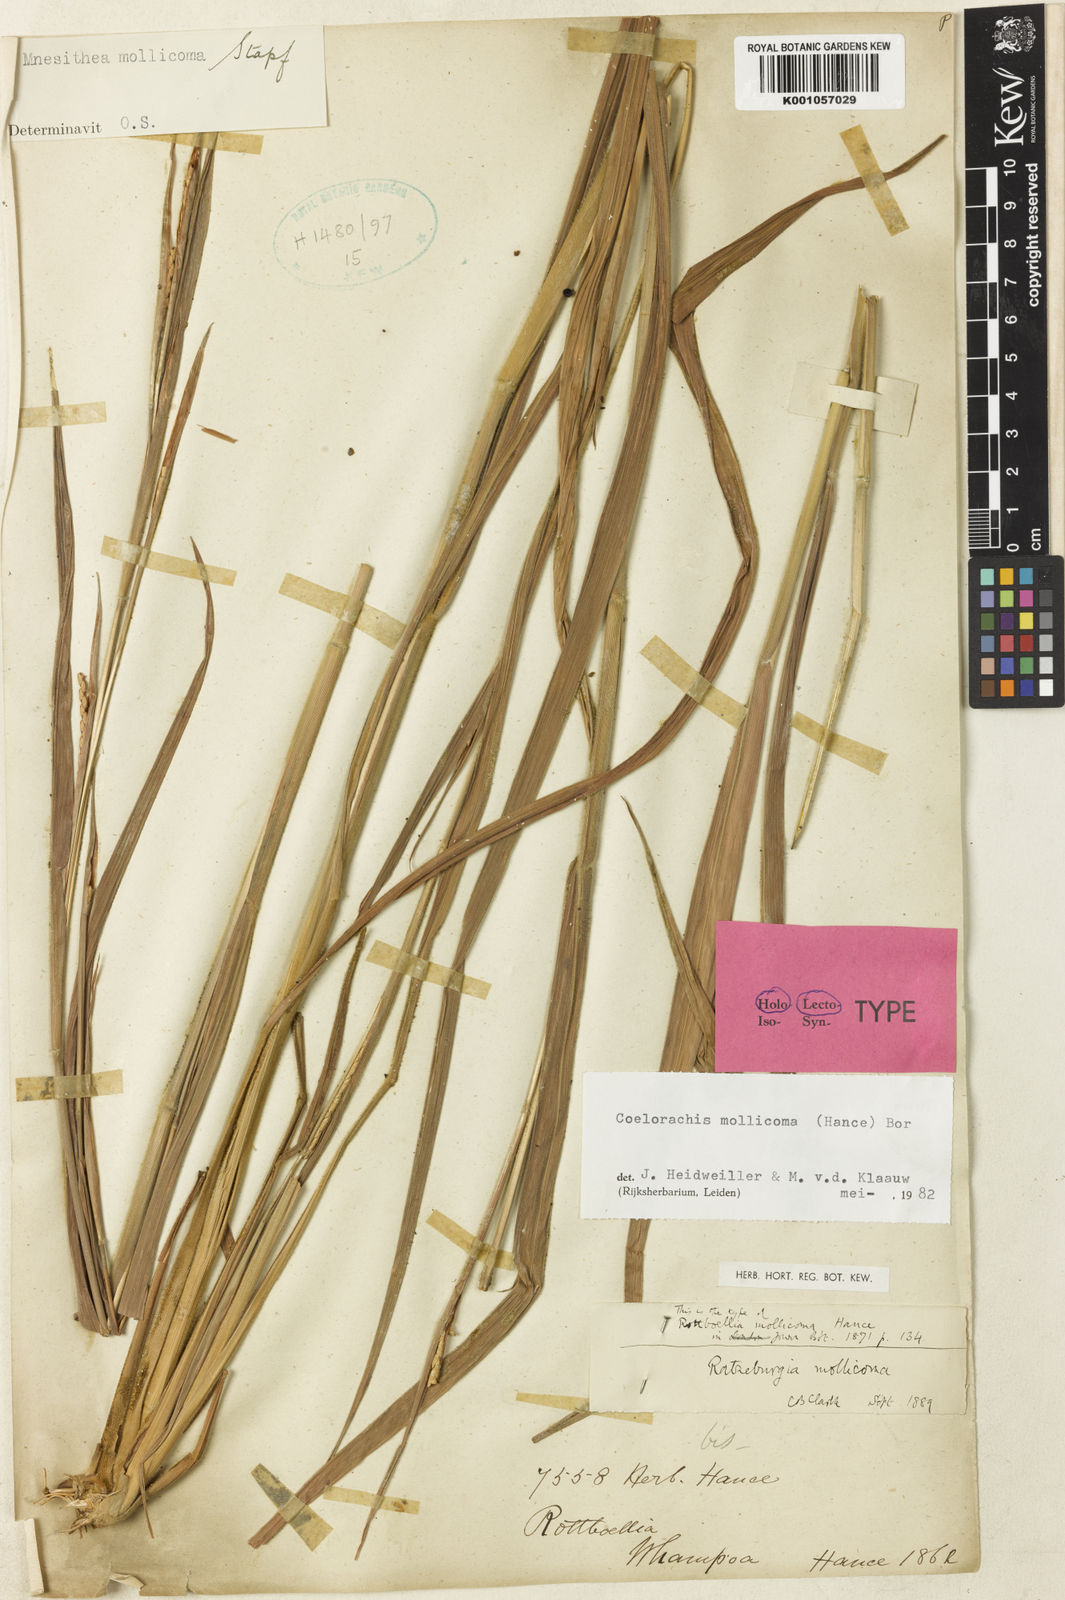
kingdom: Plantae
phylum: Tracheophyta
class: Liliopsida
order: Poales
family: Poaceae
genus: Mnesithea
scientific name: Mnesithea mollicoma
